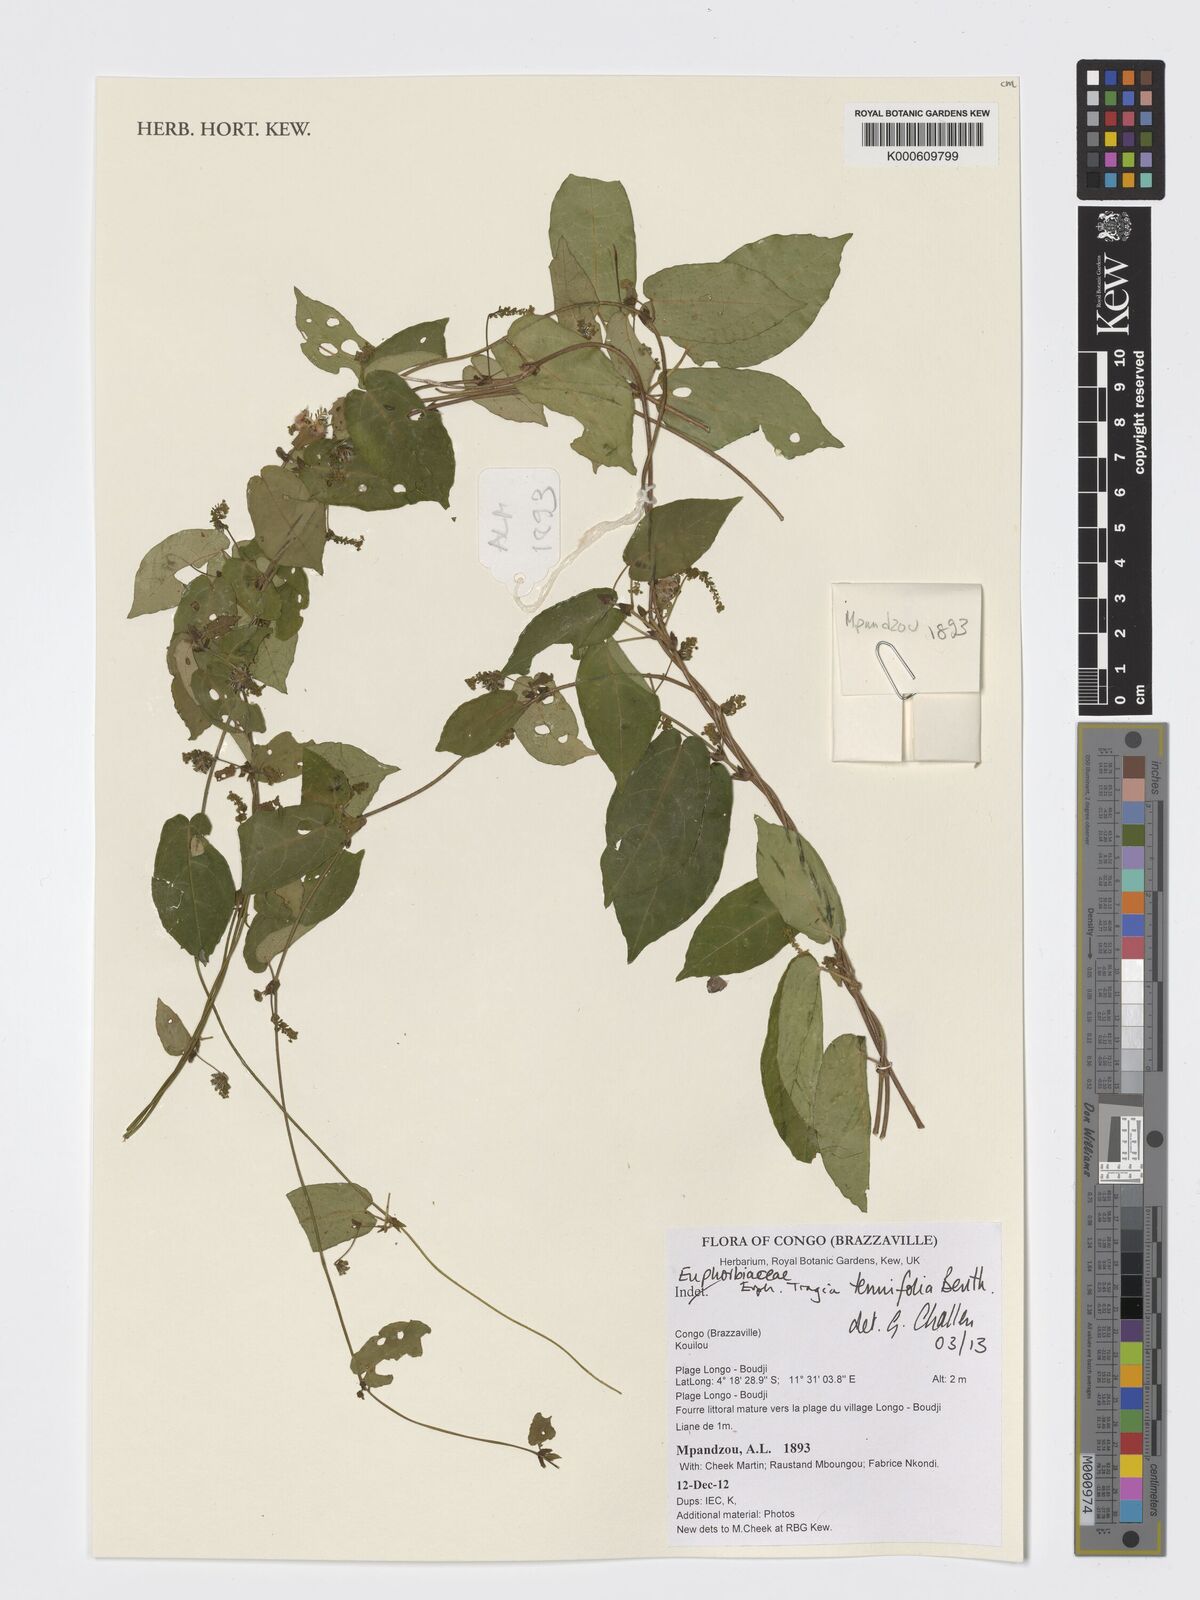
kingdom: Plantae
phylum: Tracheophyta
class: Magnoliopsida
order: Malpighiales
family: Euphorbiaceae
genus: Tragia
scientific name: Tragia tenuifolia
